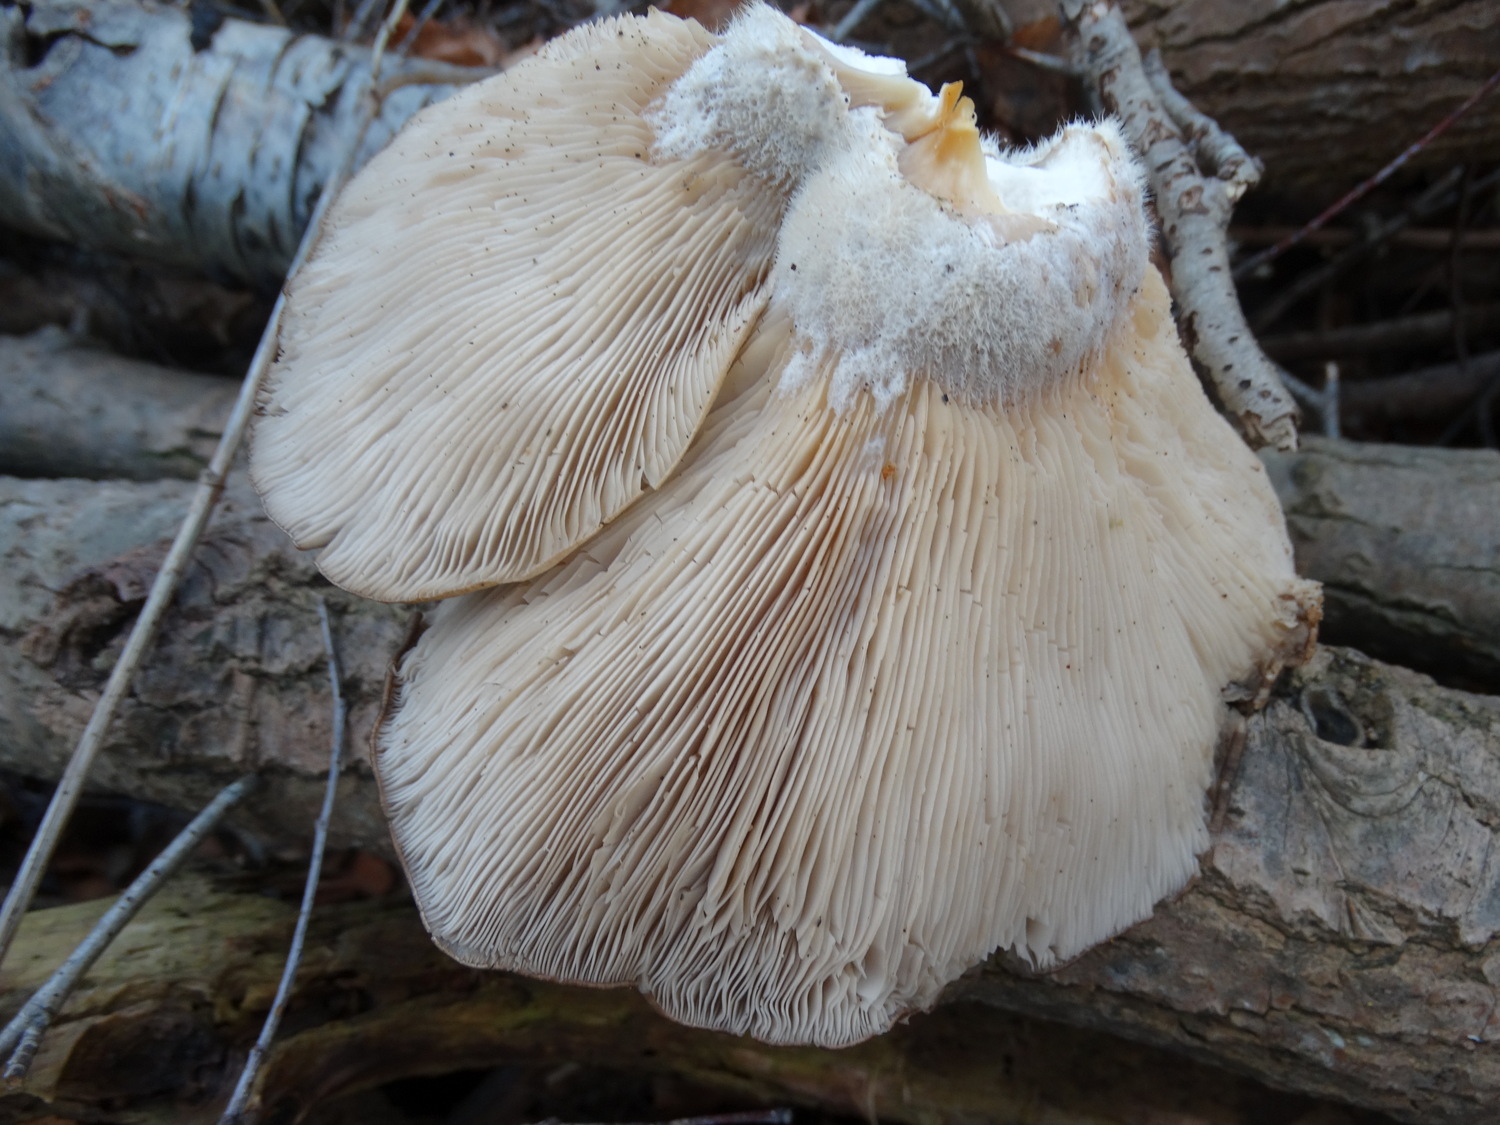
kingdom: Fungi
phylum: Basidiomycota
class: Agaricomycetes
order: Agaricales
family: Pleurotaceae
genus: Pleurotus
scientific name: Pleurotus ostreatus
